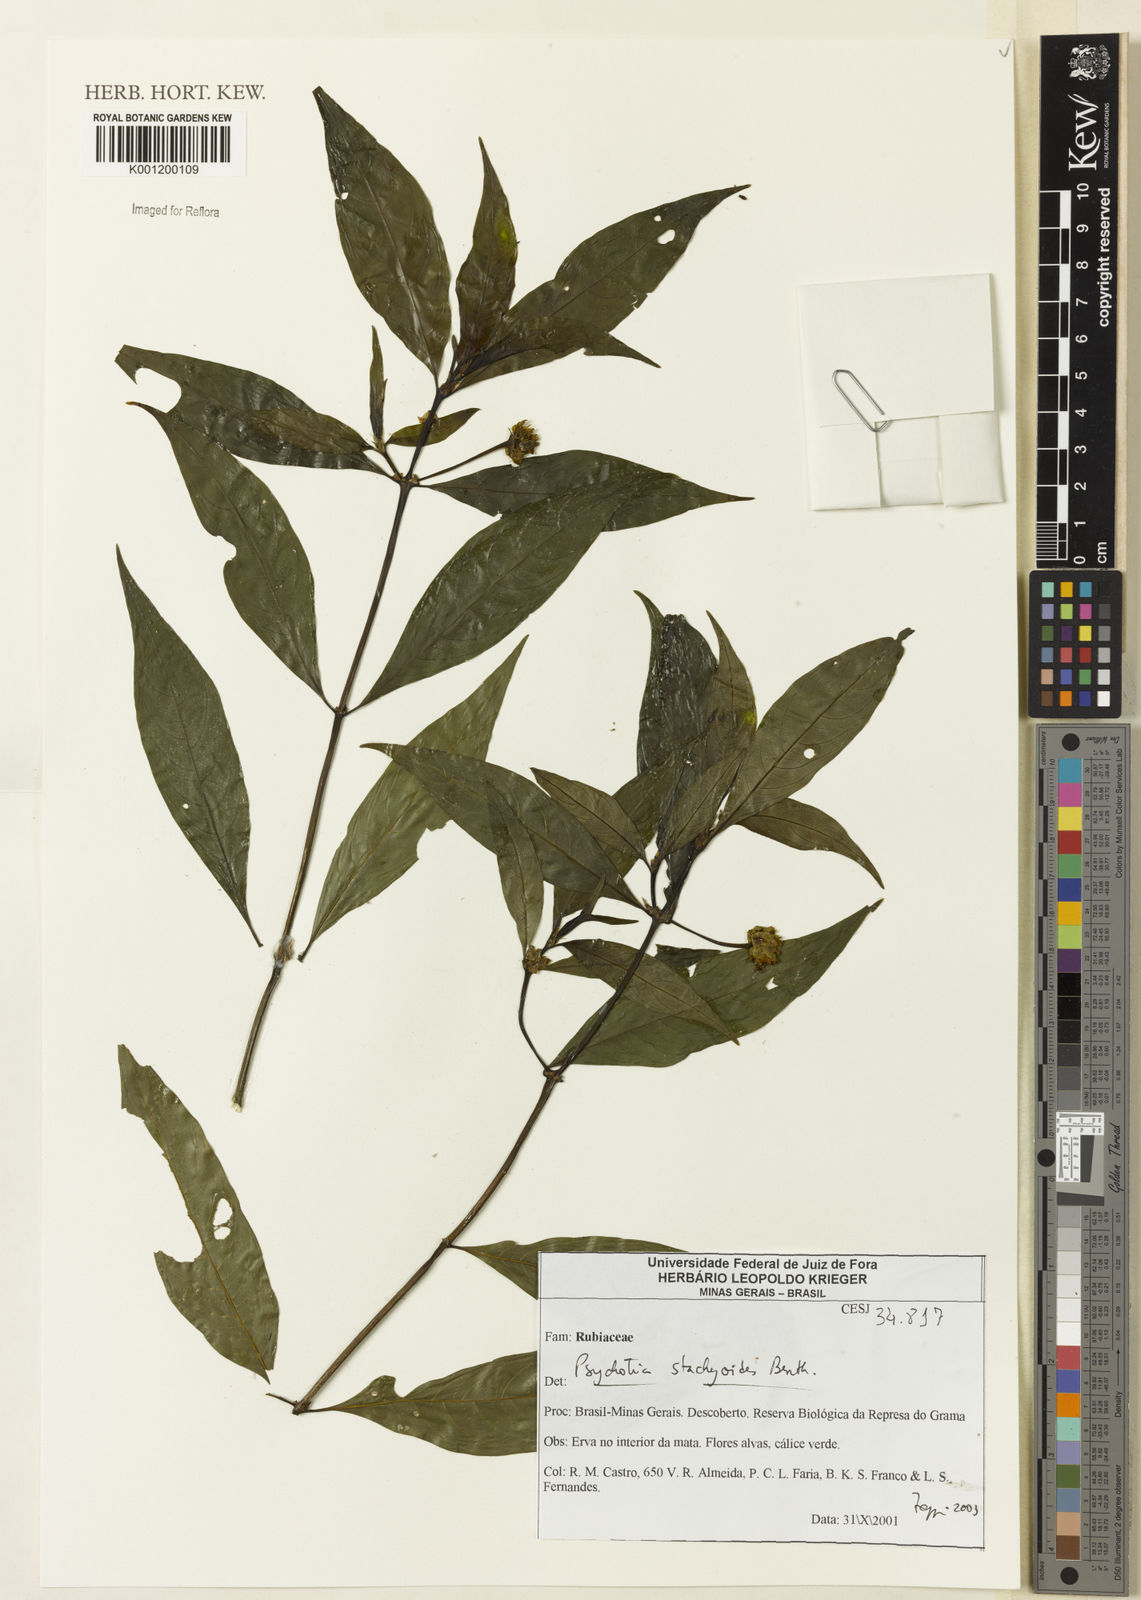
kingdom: Plantae
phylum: Tracheophyta
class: Magnoliopsida
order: Gentianales
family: Rubiaceae
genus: Psychotria
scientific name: Psychotria stachyoides
